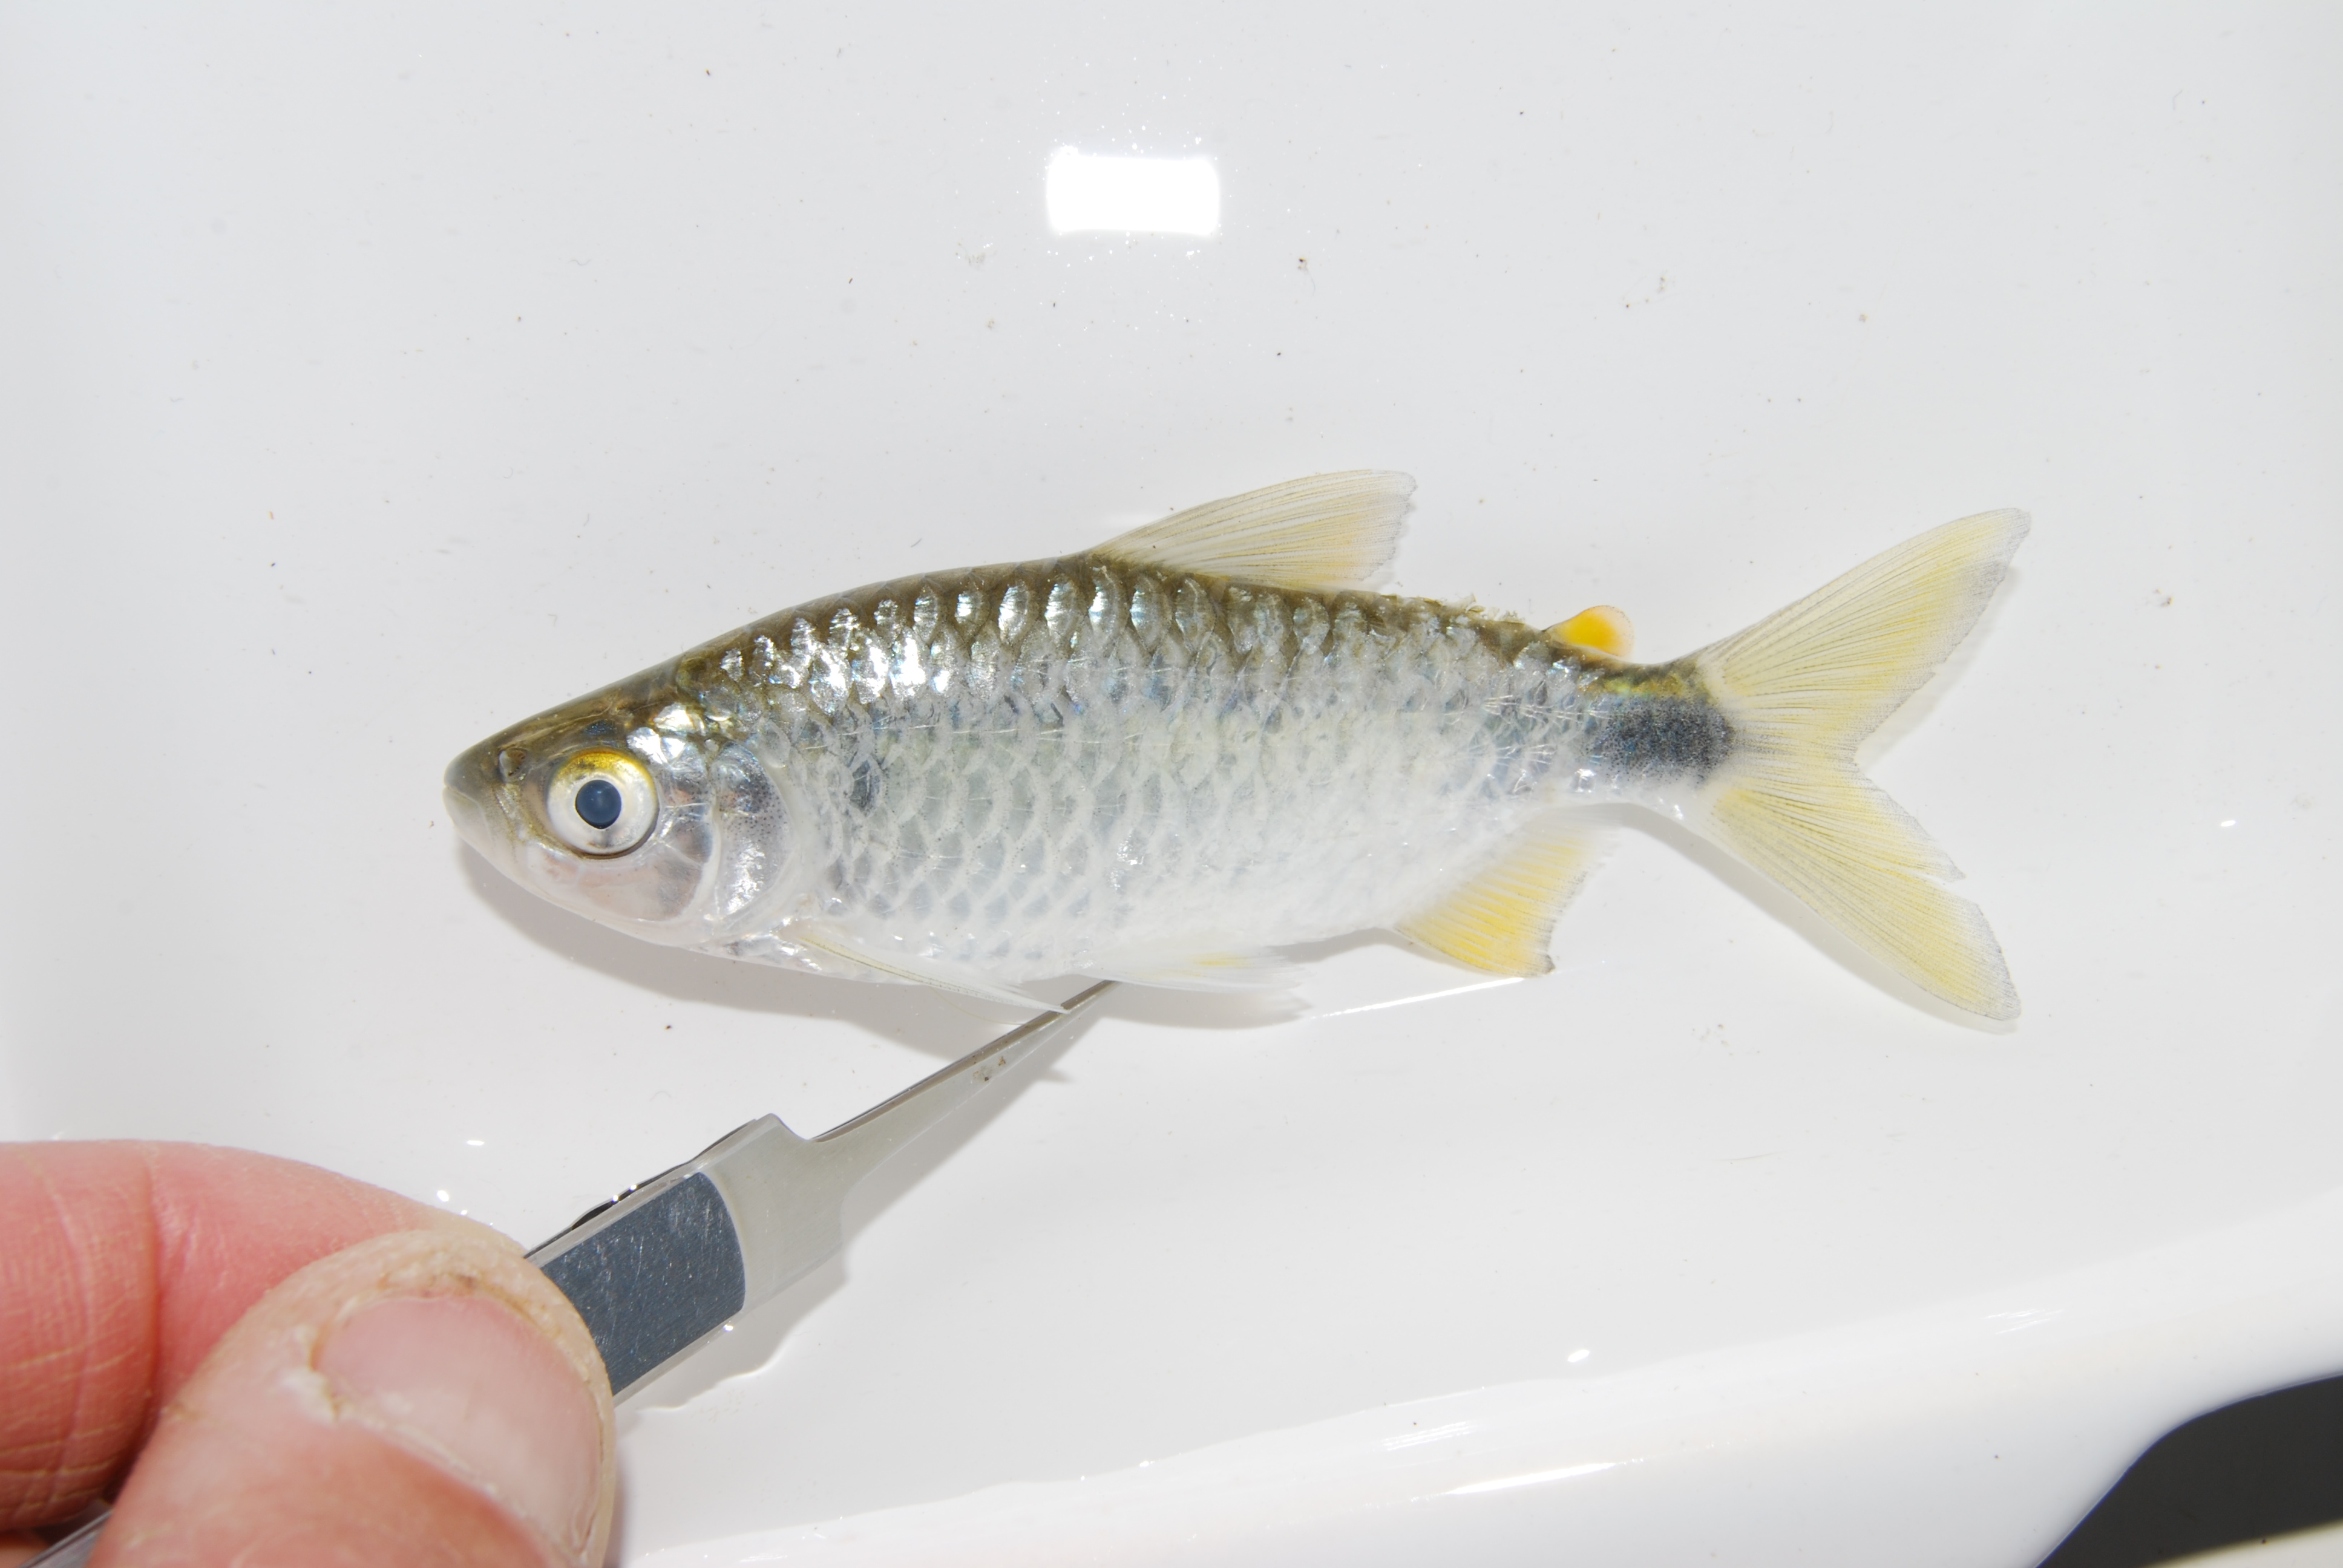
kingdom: Animalia
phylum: Chordata
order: Characiformes
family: Alestidae
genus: Brycinus
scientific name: Brycinus imberi
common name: Imberi
